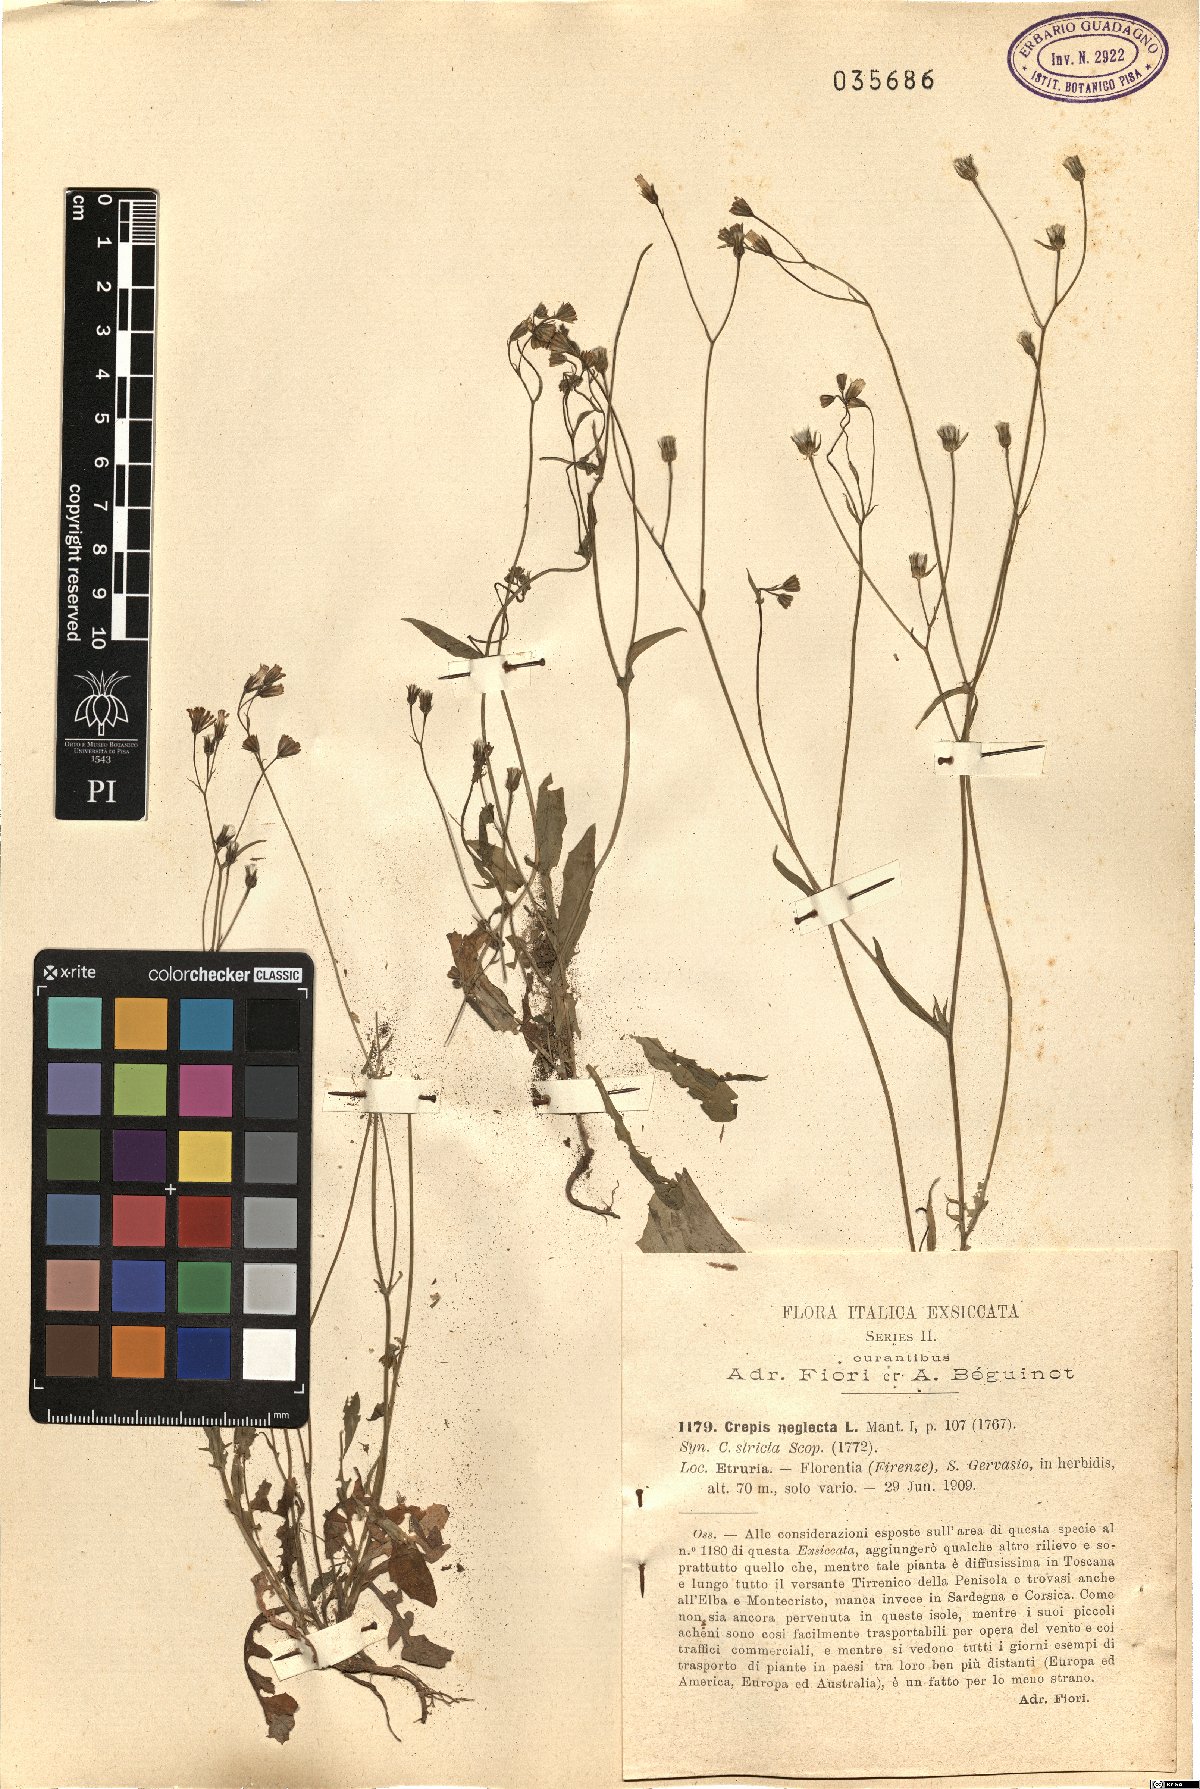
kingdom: Plantae
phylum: Tracheophyta
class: Magnoliopsida
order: Asterales
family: Asteraceae
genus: Crepis
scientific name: Crepis neglecta
